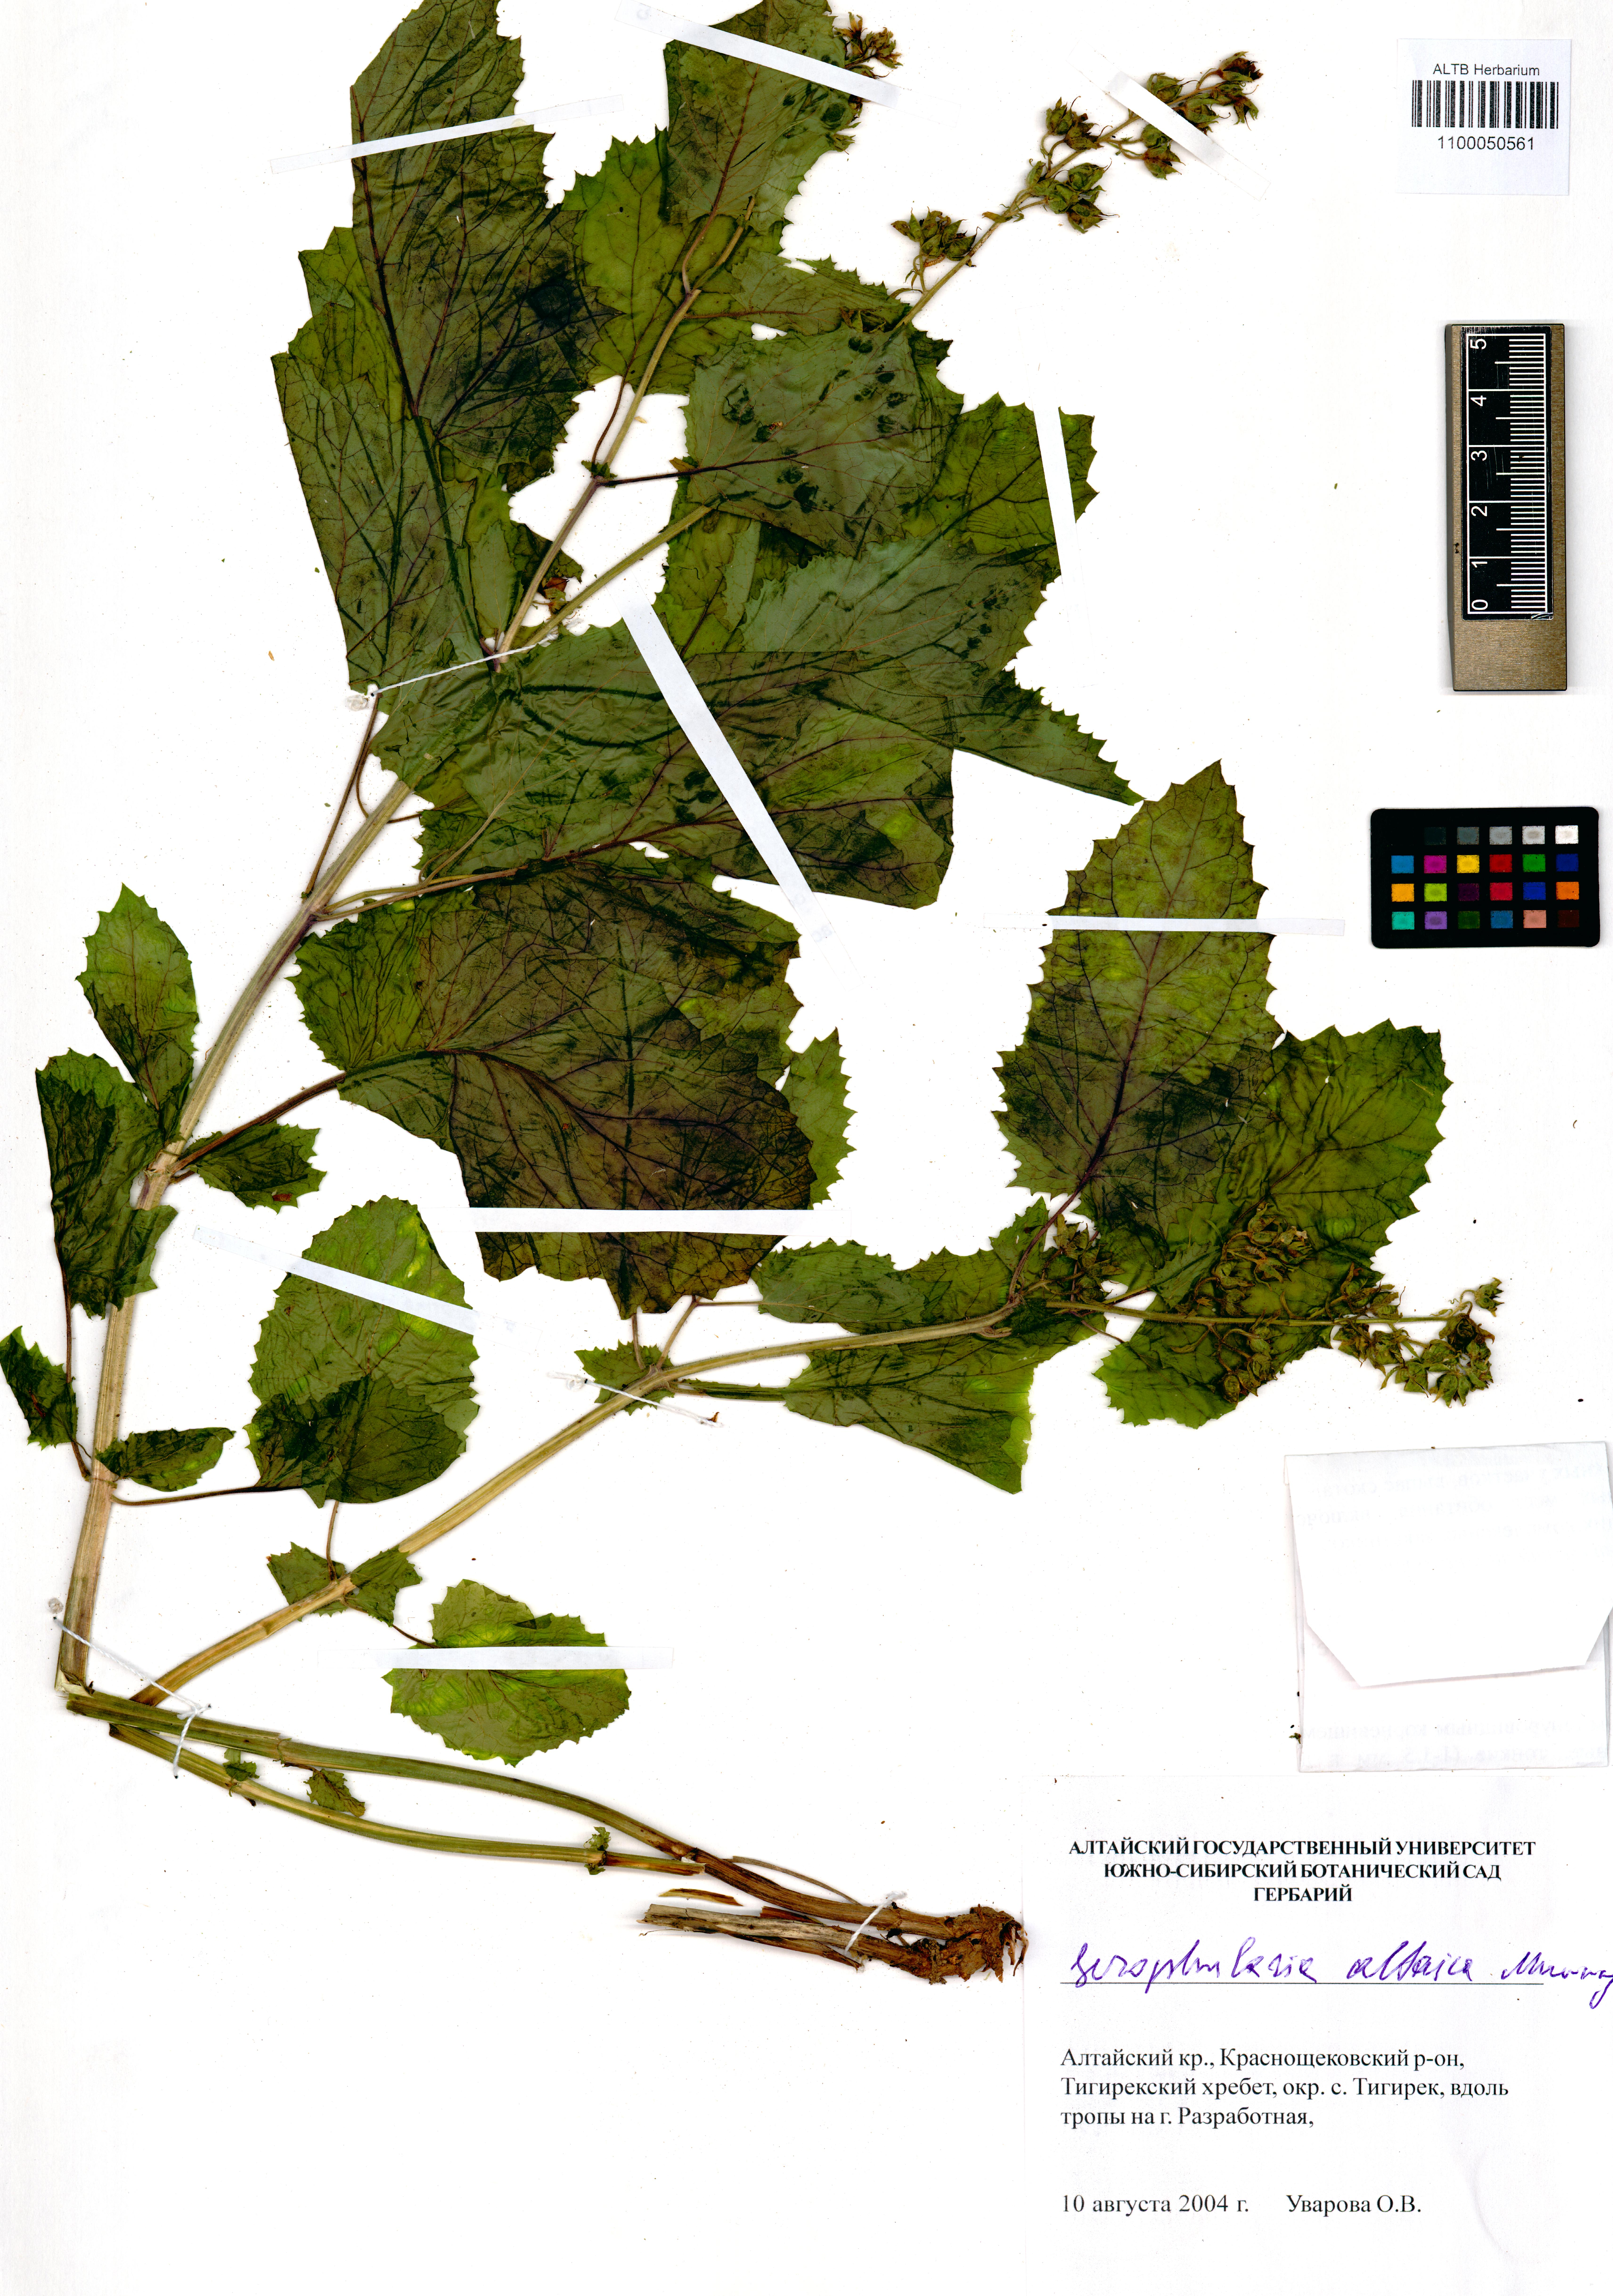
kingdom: Plantae
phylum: Tracheophyta
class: Magnoliopsida
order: Lamiales
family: Scrophulariaceae
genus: Scrophularia
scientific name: Scrophularia altaica
